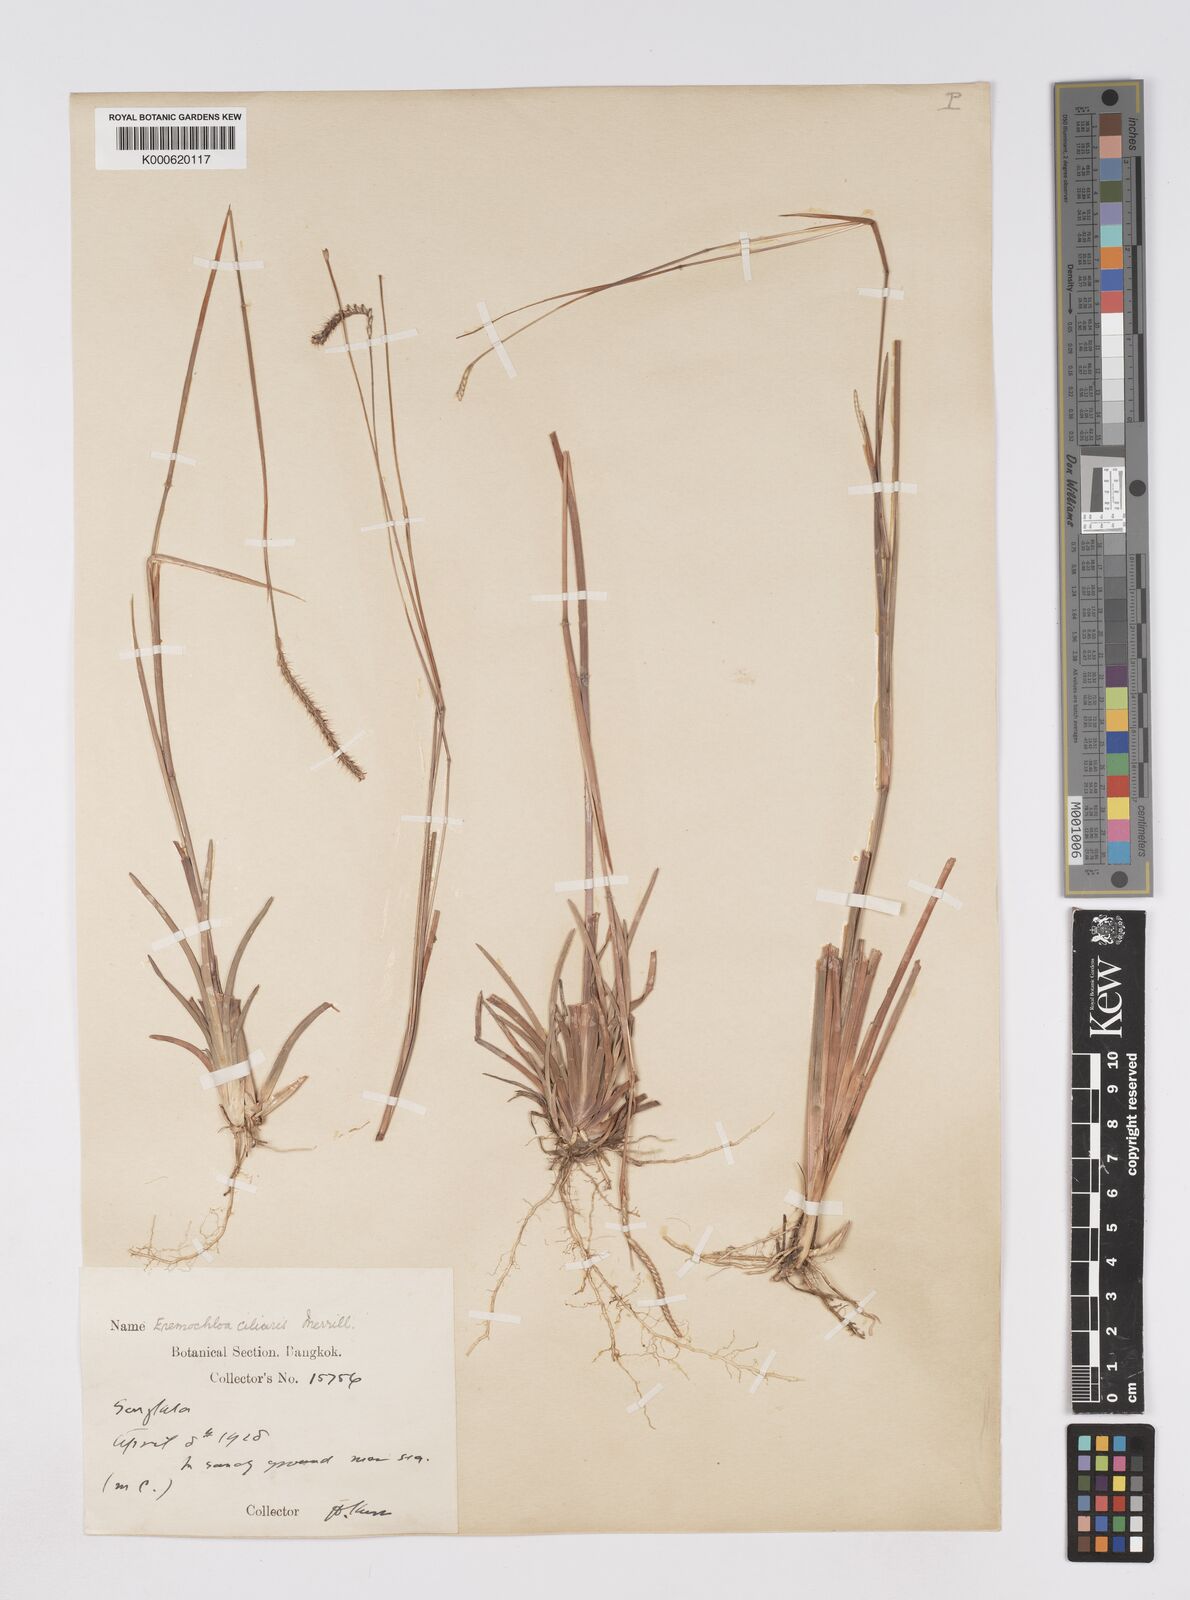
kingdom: Plantae
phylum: Tracheophyta
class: Liliopsida
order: Poales
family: Poaceae
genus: Eremochloa
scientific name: Eremochloa ciliaris
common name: Fringed centipede grass
